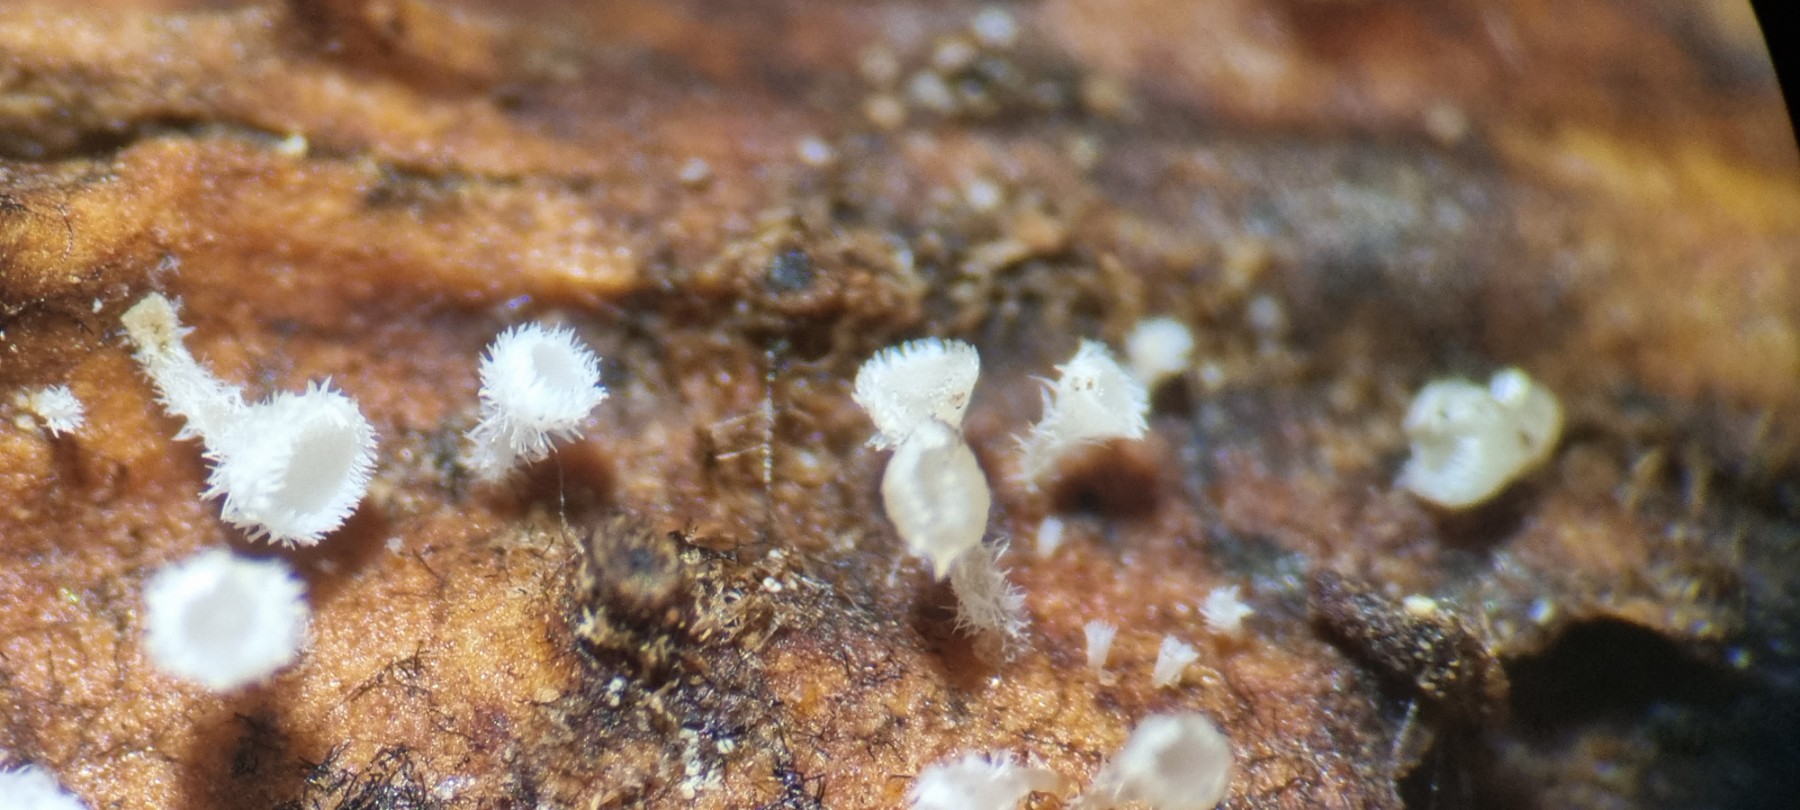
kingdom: Fungi
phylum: Ascomycota
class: Leotiomycetes
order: Helotiales
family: Lachnaceae
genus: Lachnum
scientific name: Lachnum virgineum
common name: jomfru-frynseskive
